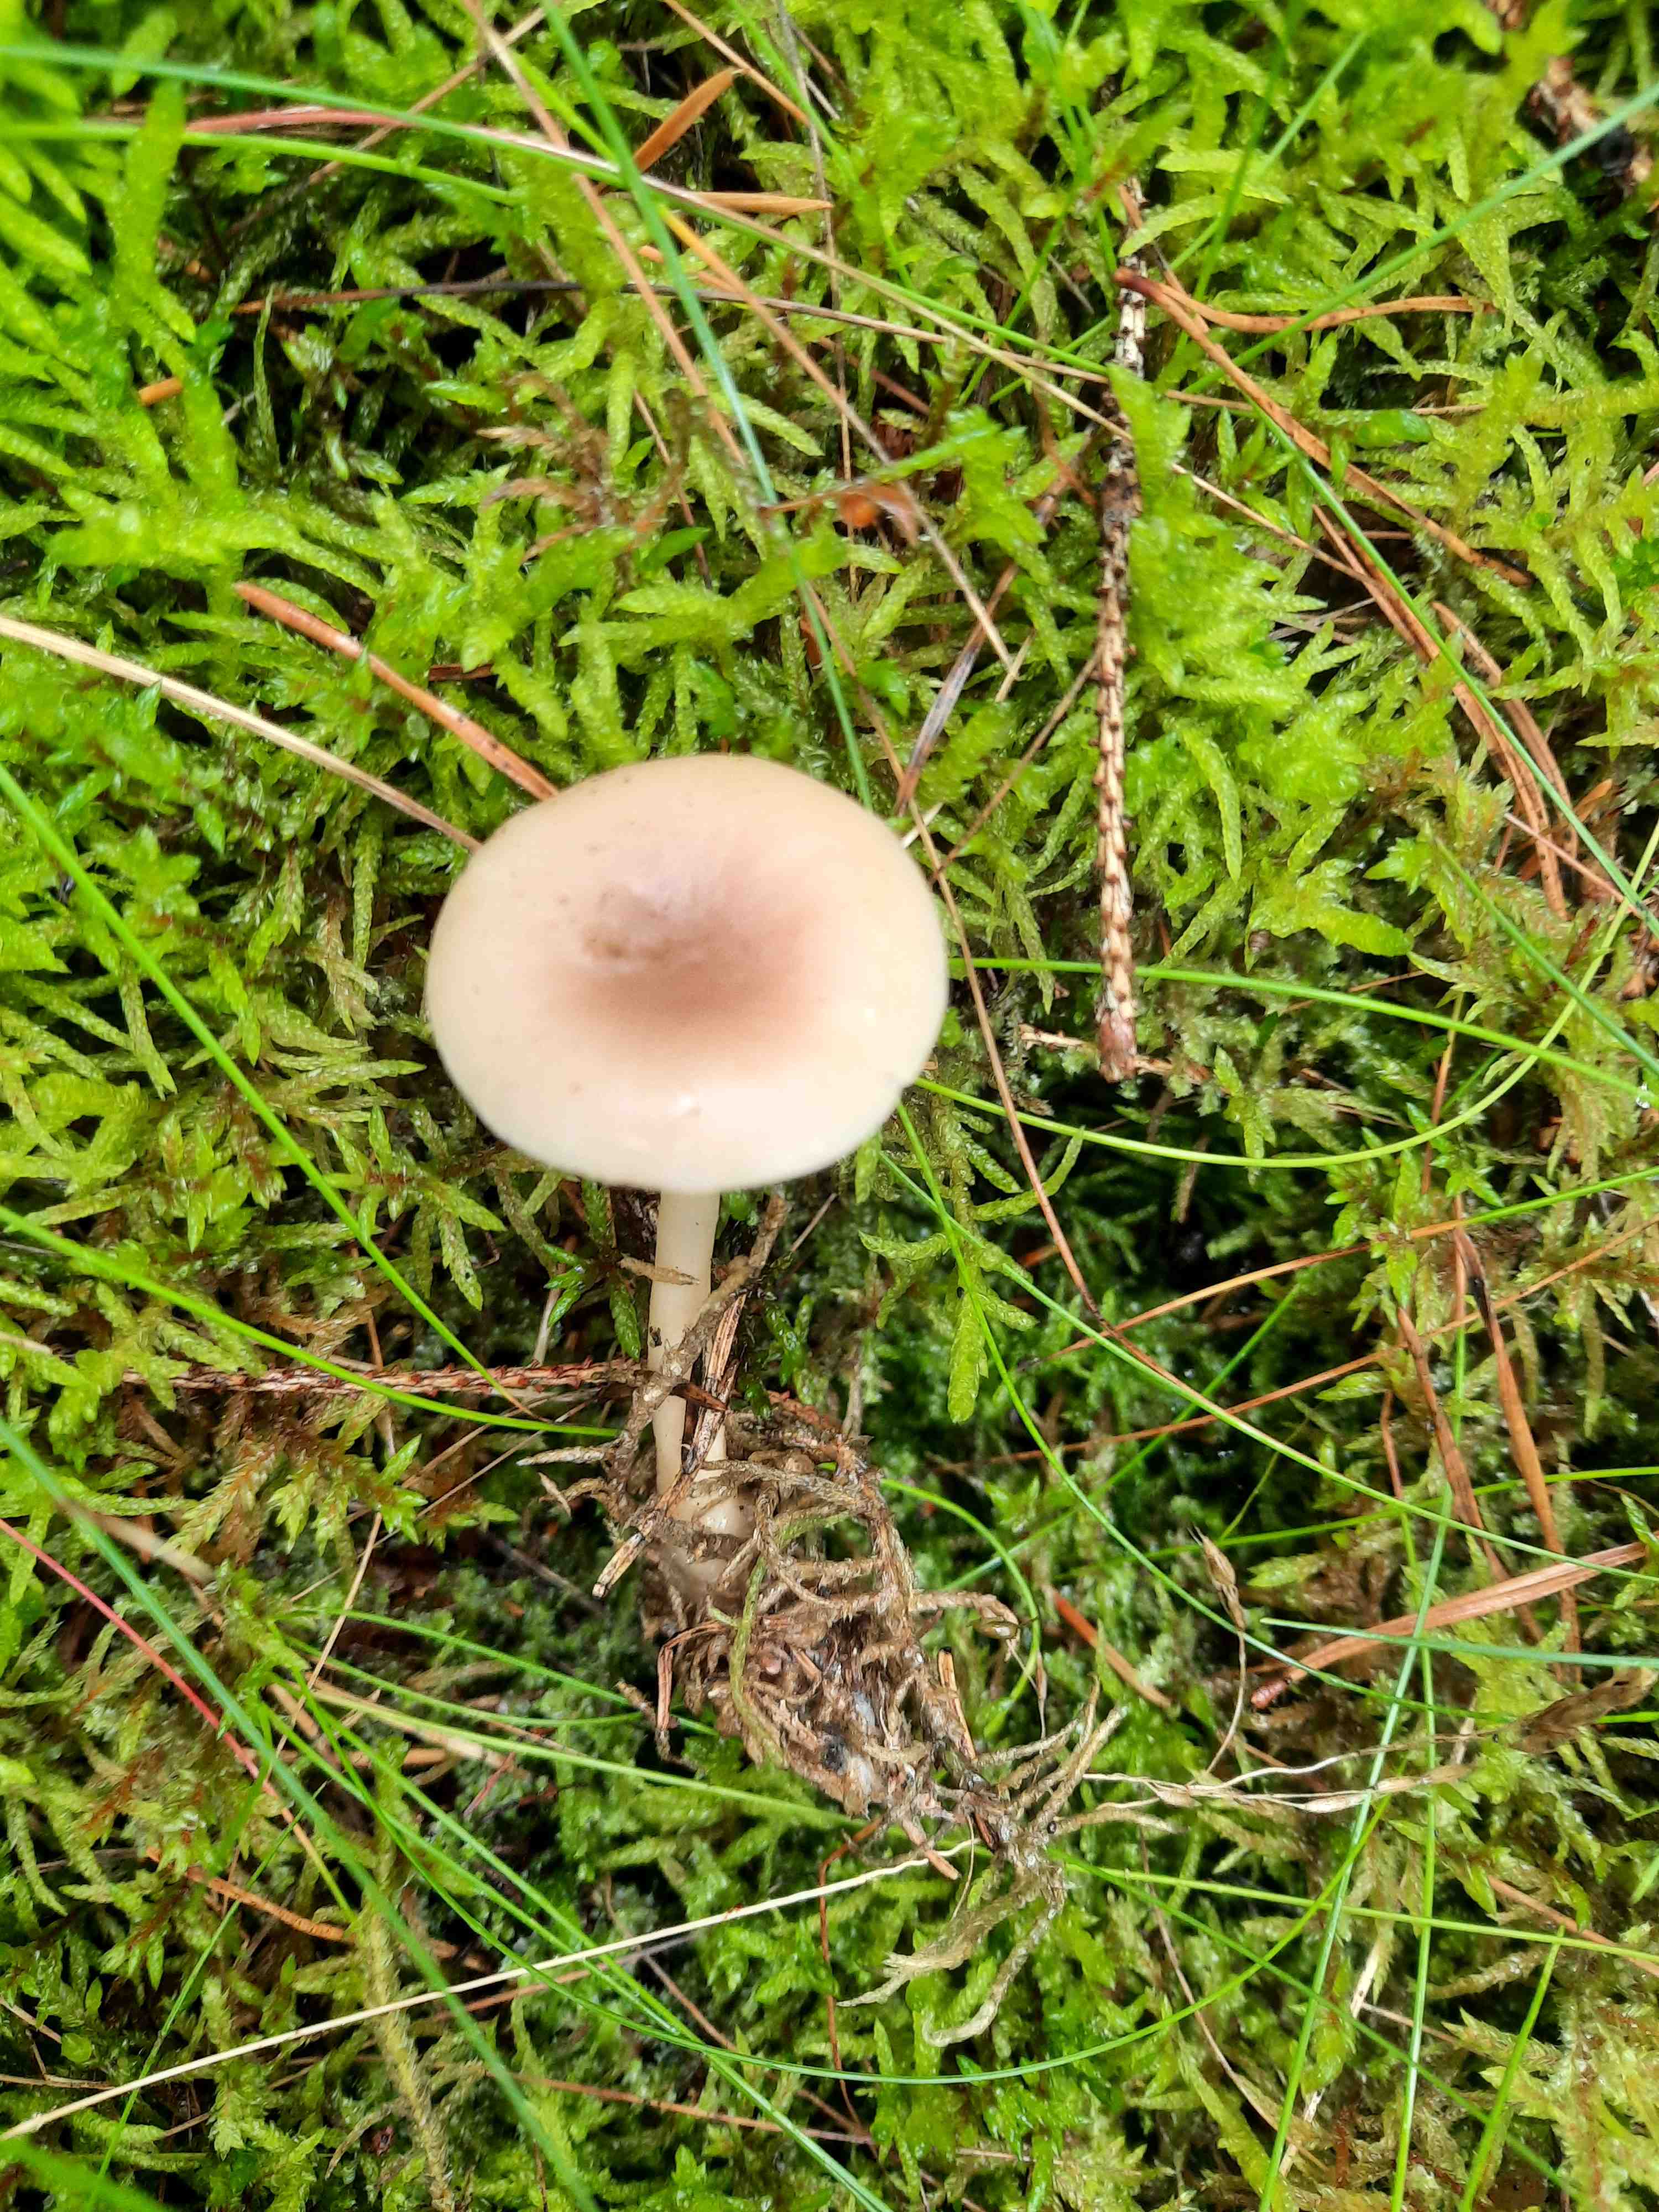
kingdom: Fungi
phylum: Basidiomycota
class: Agaricomycetes
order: Agaricales
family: Tricholomataceae
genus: Clitocybe
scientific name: Clitocybe
